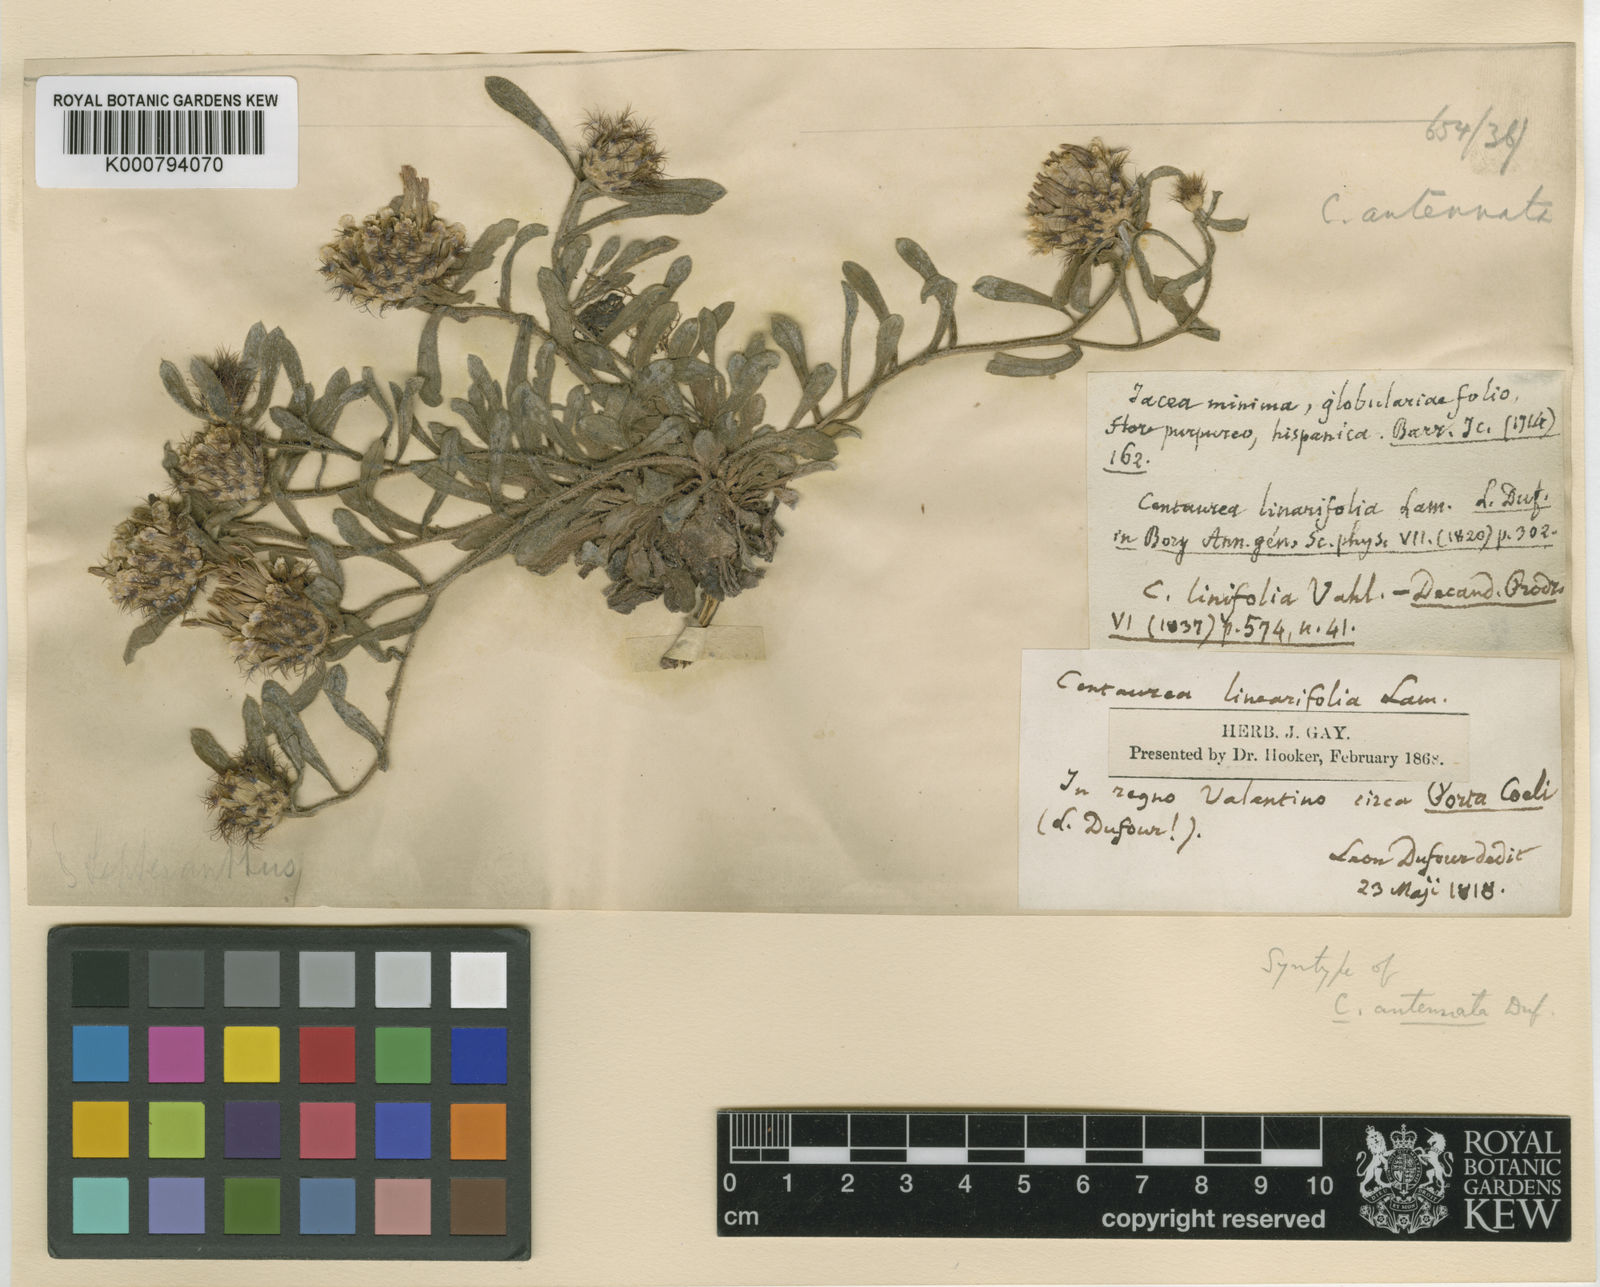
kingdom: Plantae
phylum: Tracheophyta
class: Magnoliopsida
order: Asterales
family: Asteraceae
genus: Centaurea
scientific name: Centaurea antennata
